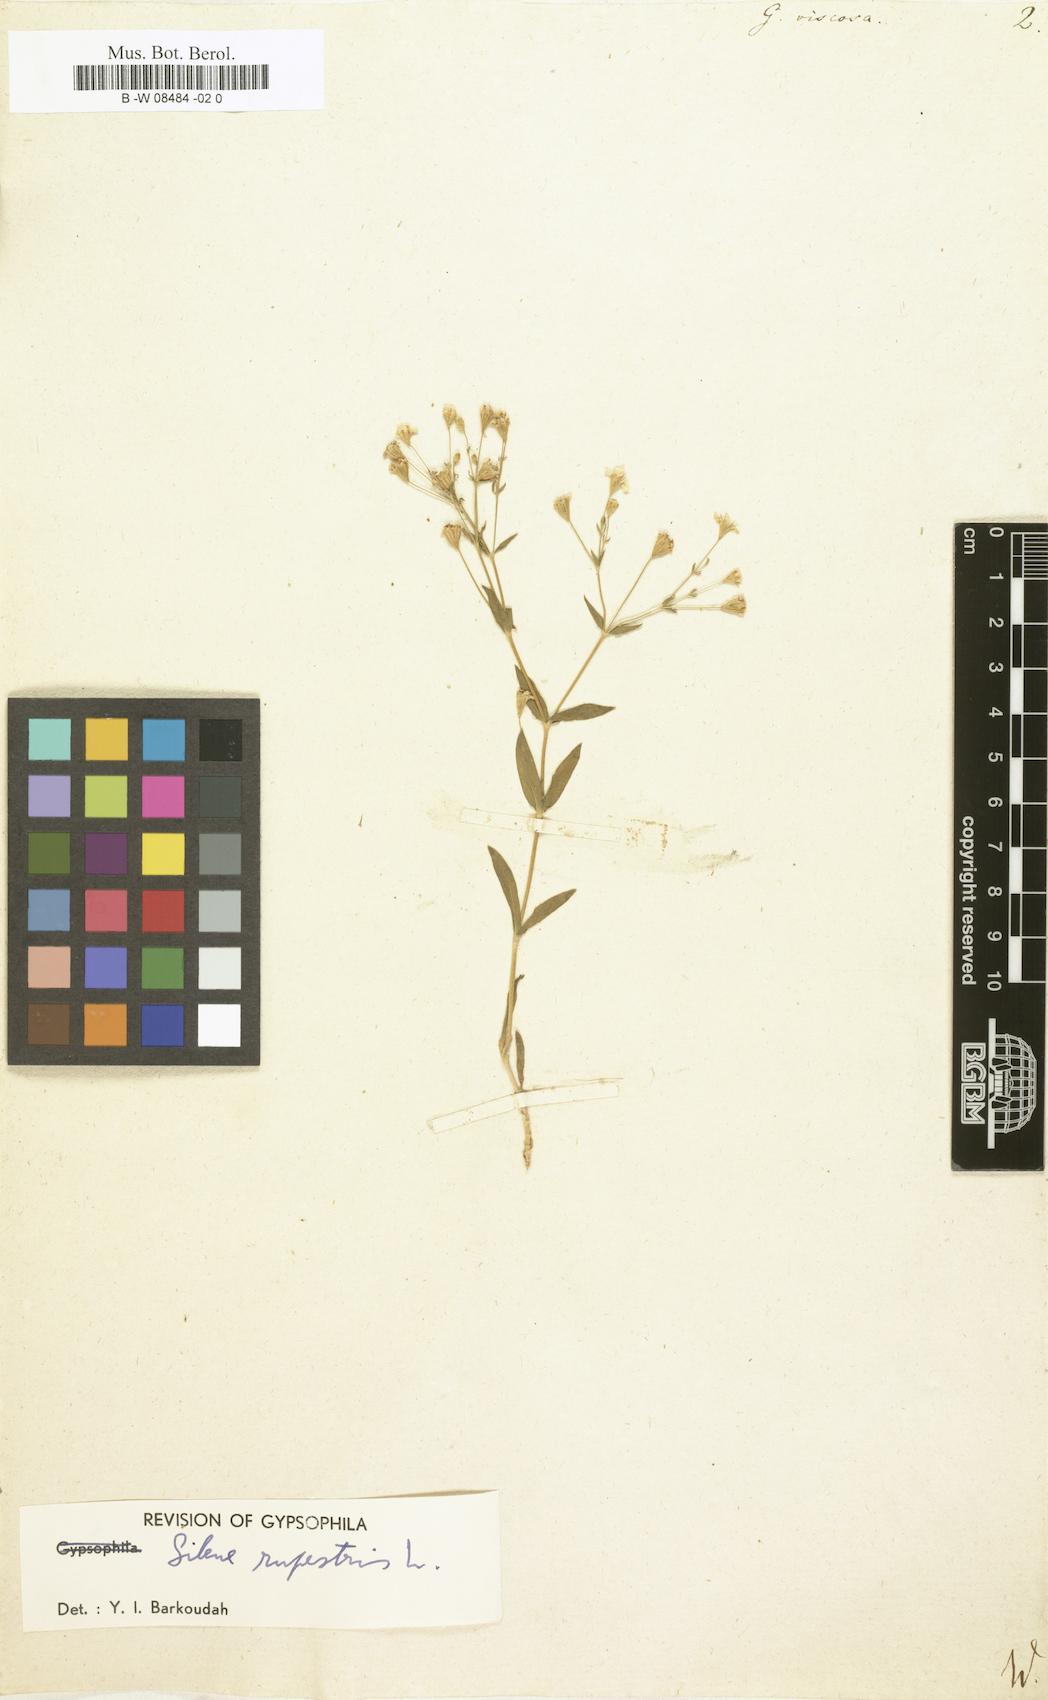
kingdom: Plantae
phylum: Tracheophyta
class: Magnoliopsida
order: Caryophyllales
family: Caryophyllaceae
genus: Gypsophila
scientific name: Gypsophila viscosa
